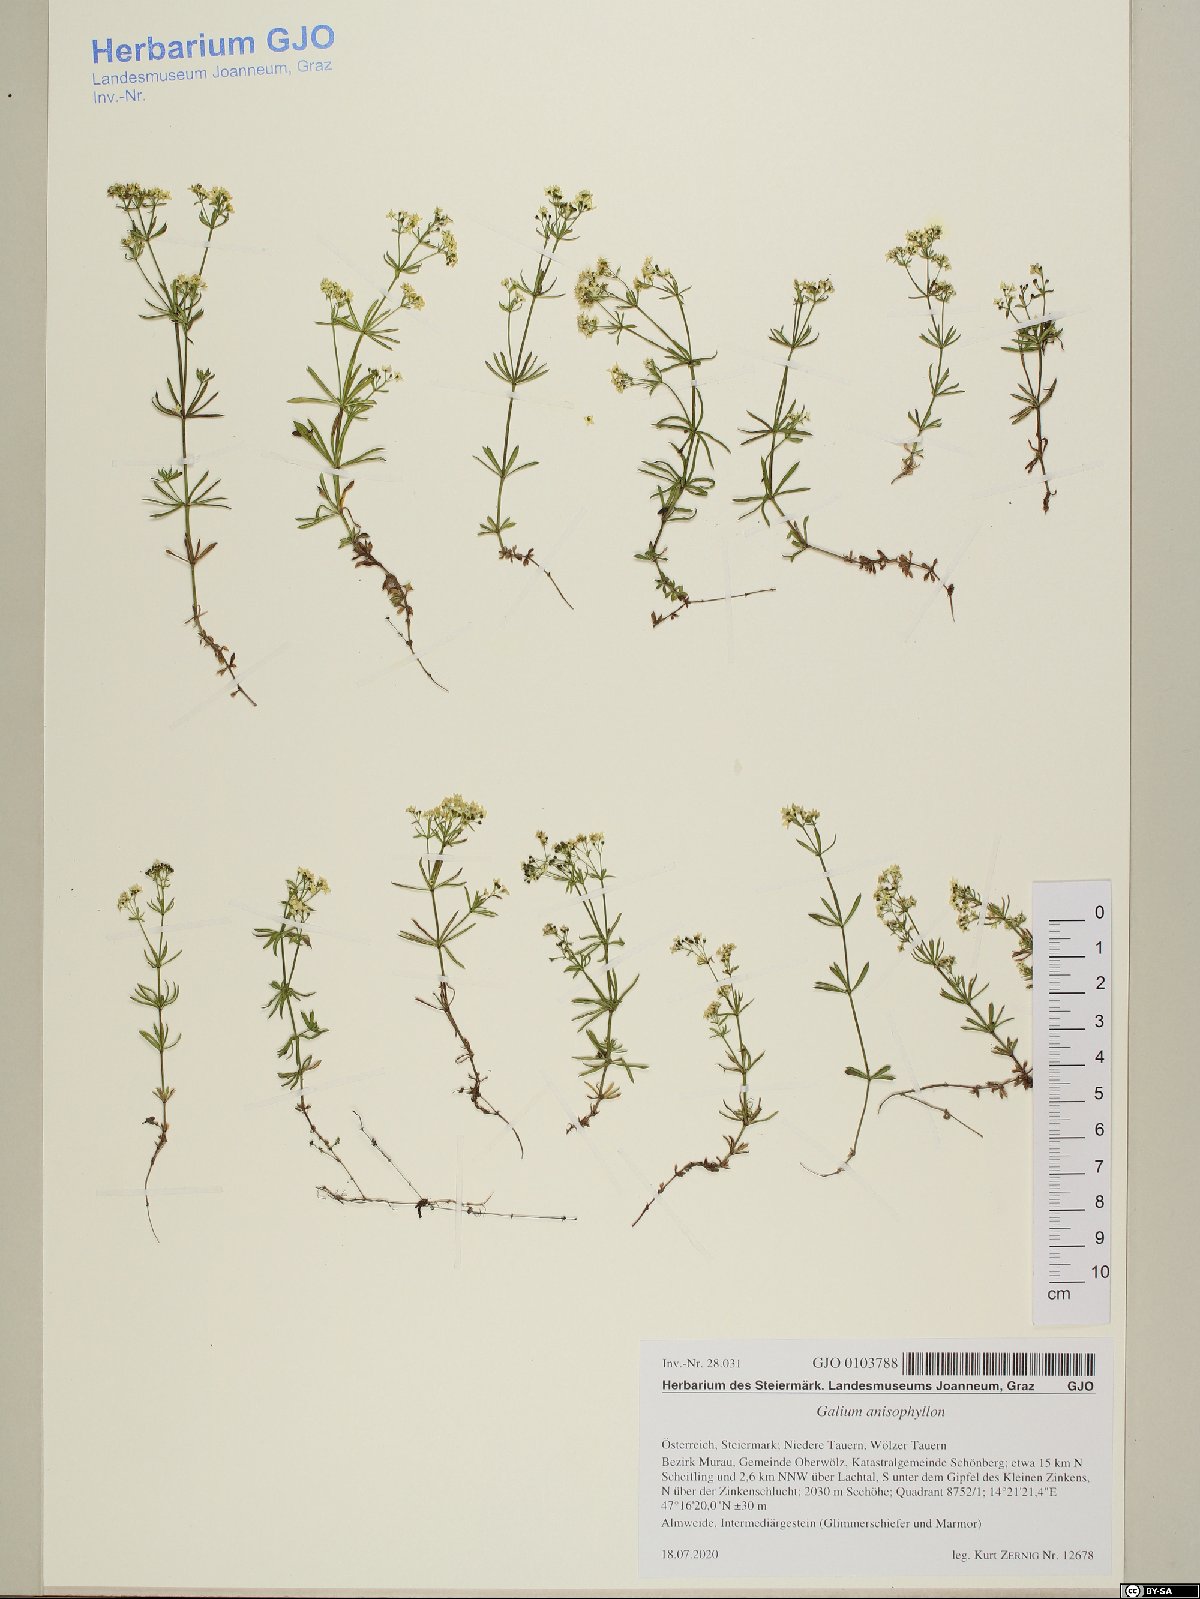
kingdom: Plantae
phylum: Tracheophyta
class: Magnoliopsida
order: Gentianales
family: Rubiaceae
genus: Galium
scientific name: Galium anisophyllon
